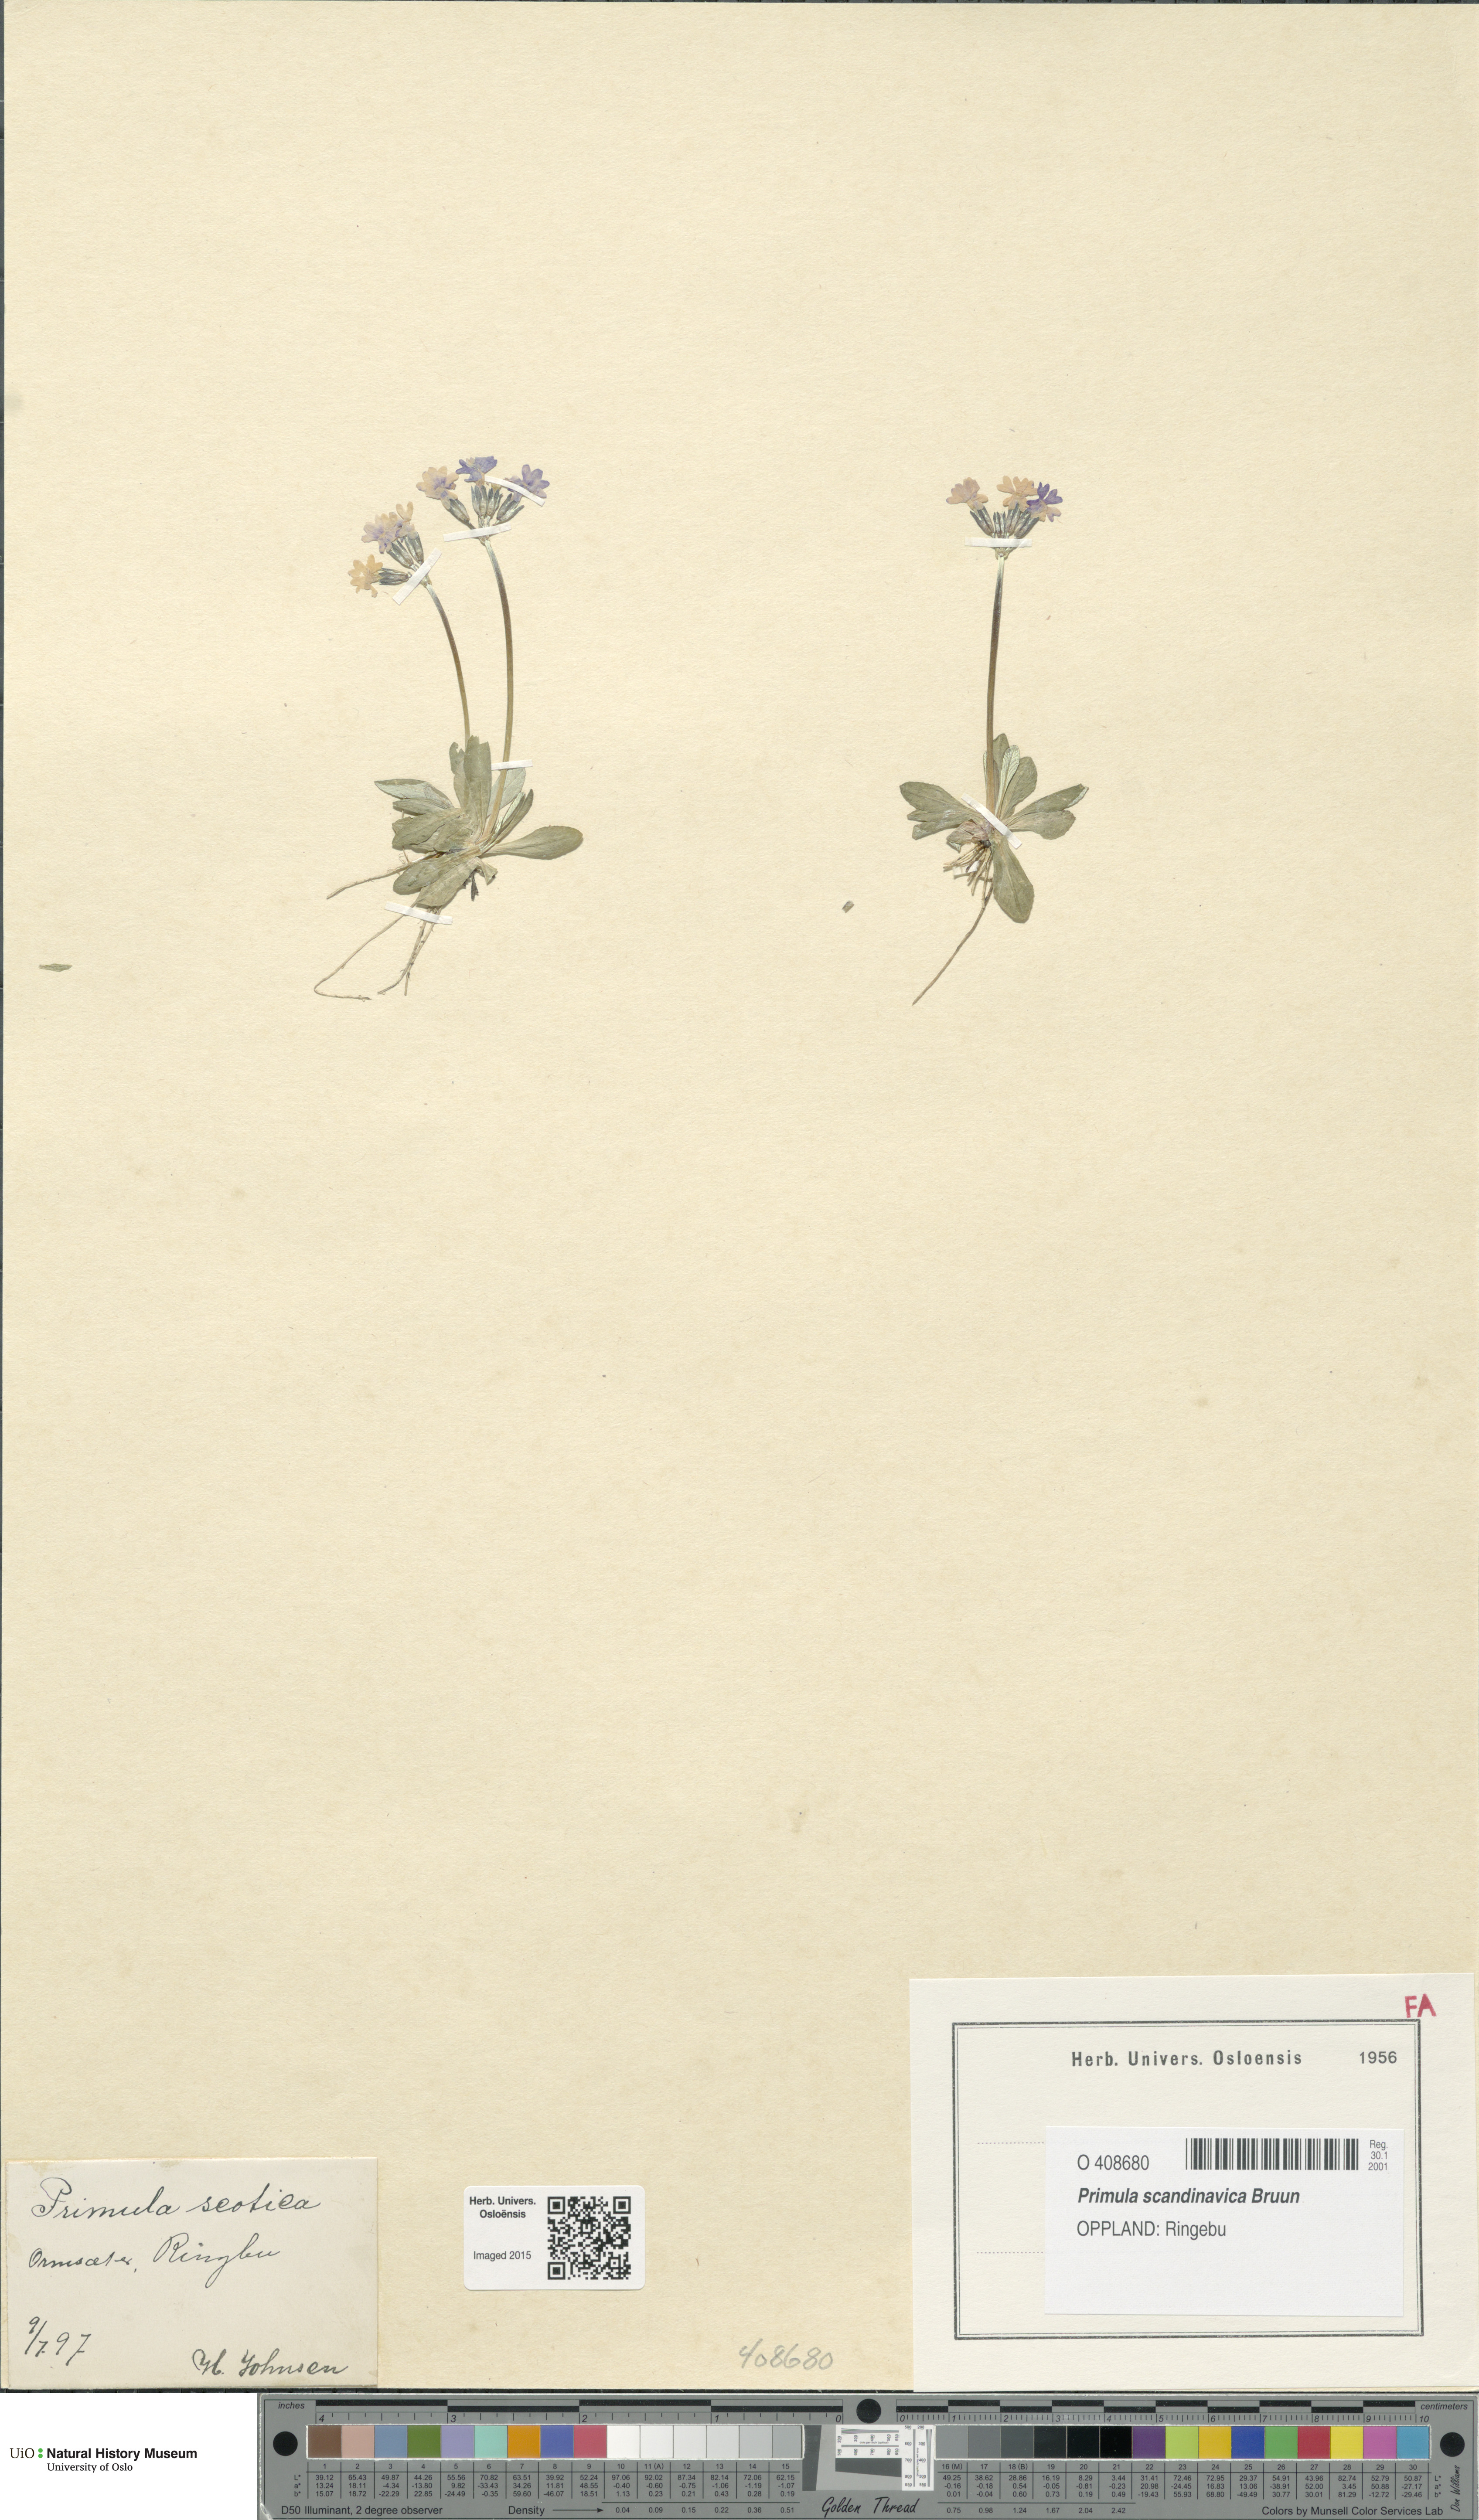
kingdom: Plantae
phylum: Tracheophyta
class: Magnoliopsida
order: Ericales
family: Primulaceae
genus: Primula
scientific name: Primula scandinavica
